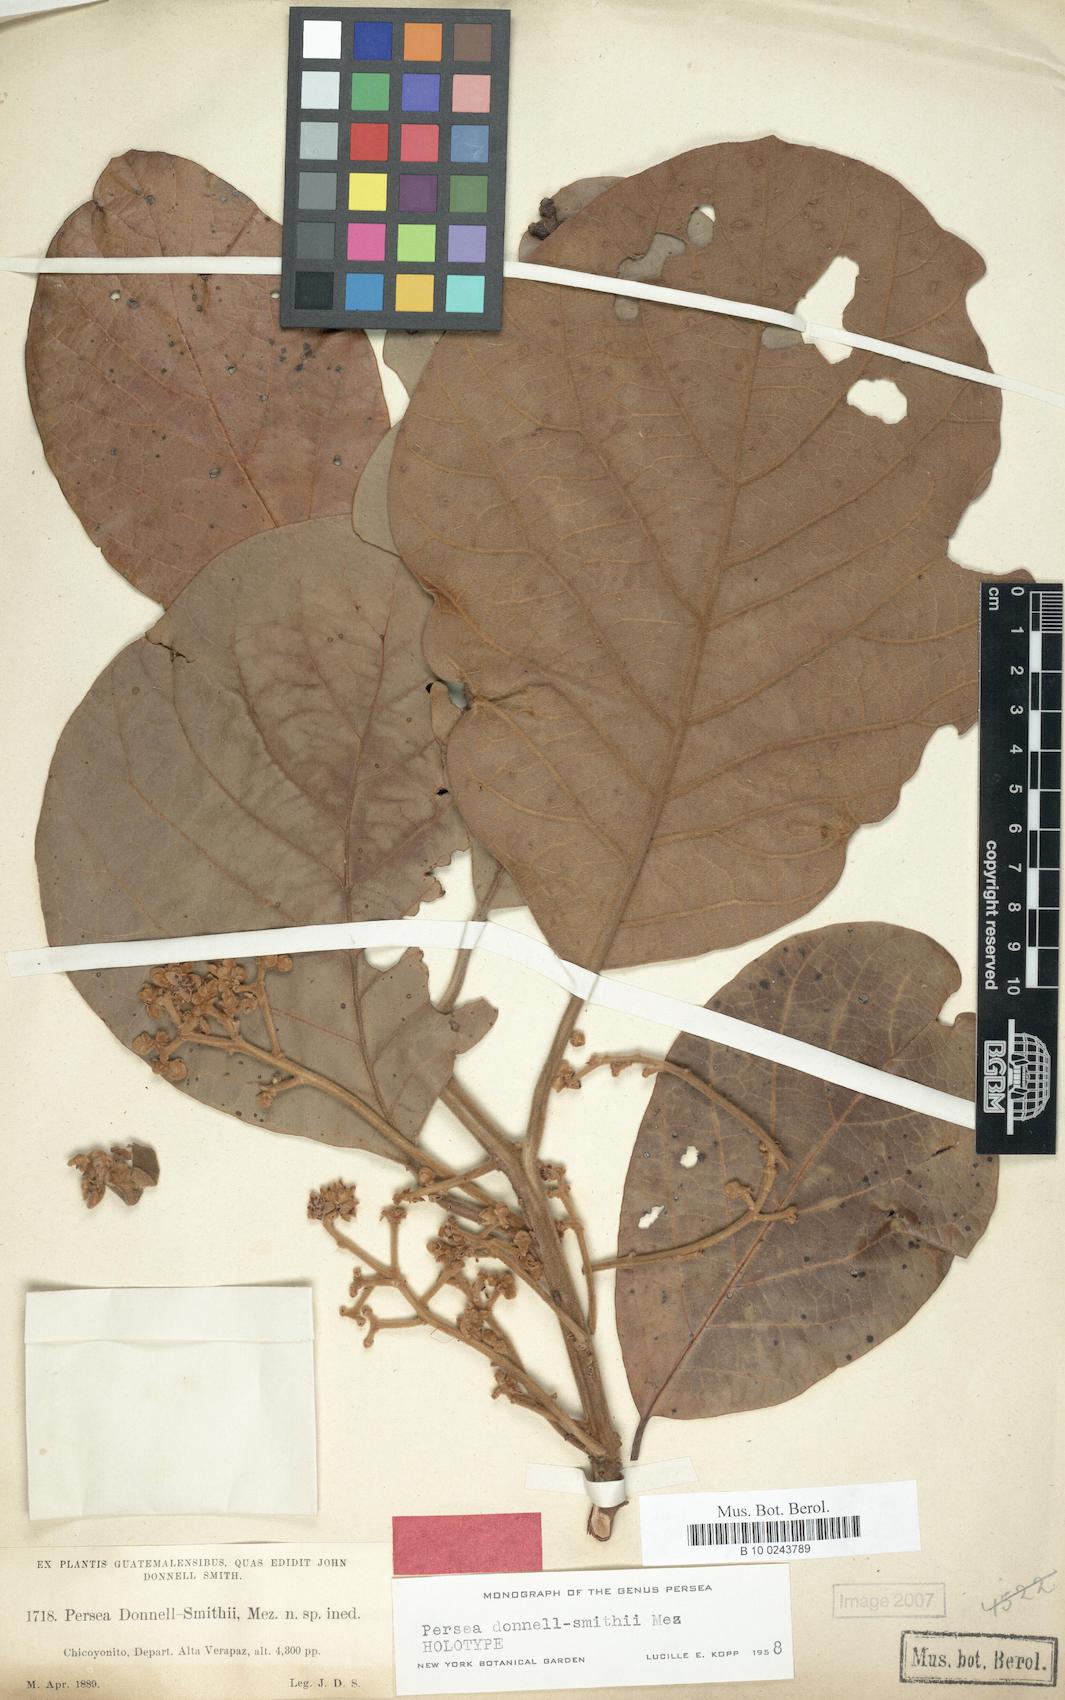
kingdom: Plantae
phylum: Tracheophyta
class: Magnoliopsida
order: Laurales
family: Lauraceae
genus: Persea
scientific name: Persea donnell-smithii
